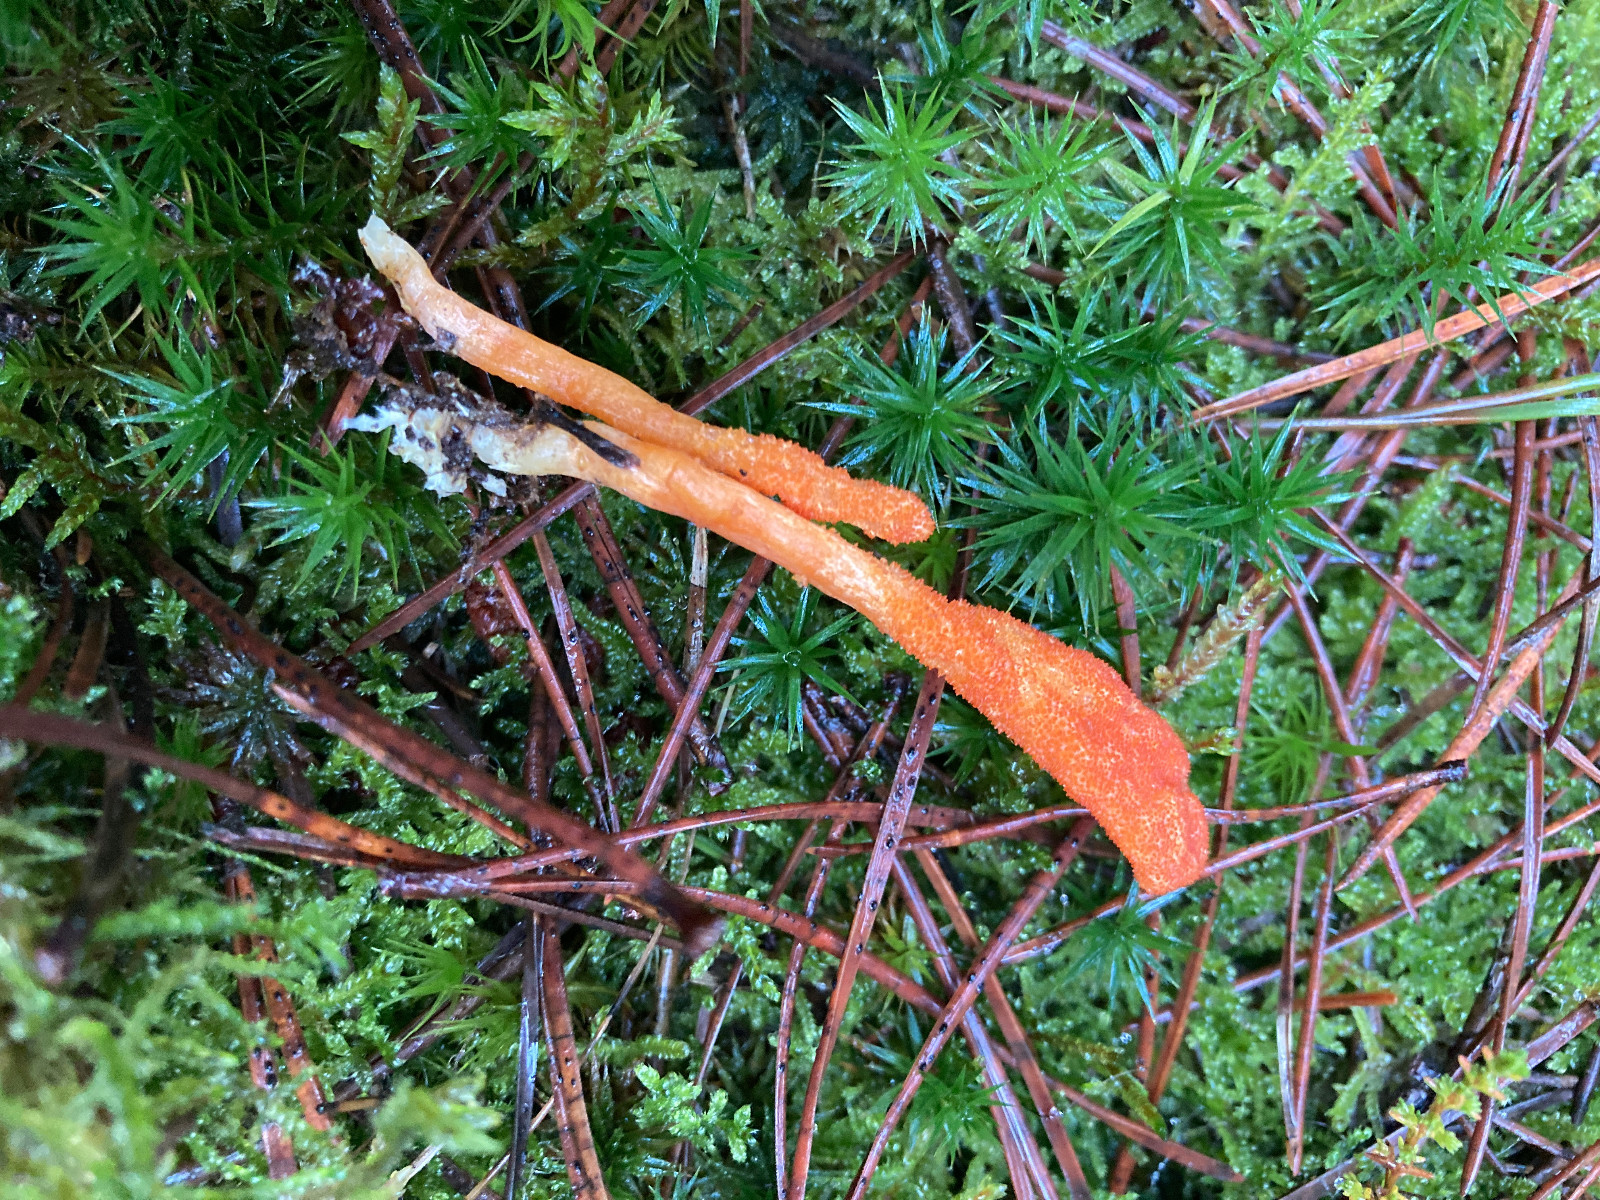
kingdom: Fungi
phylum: Ascomycota
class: Sordariomycetes
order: Hypocreales
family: Cordycipitaceae
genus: Cordyceps
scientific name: Cordyceps militaris
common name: puppe-snyltekølle
